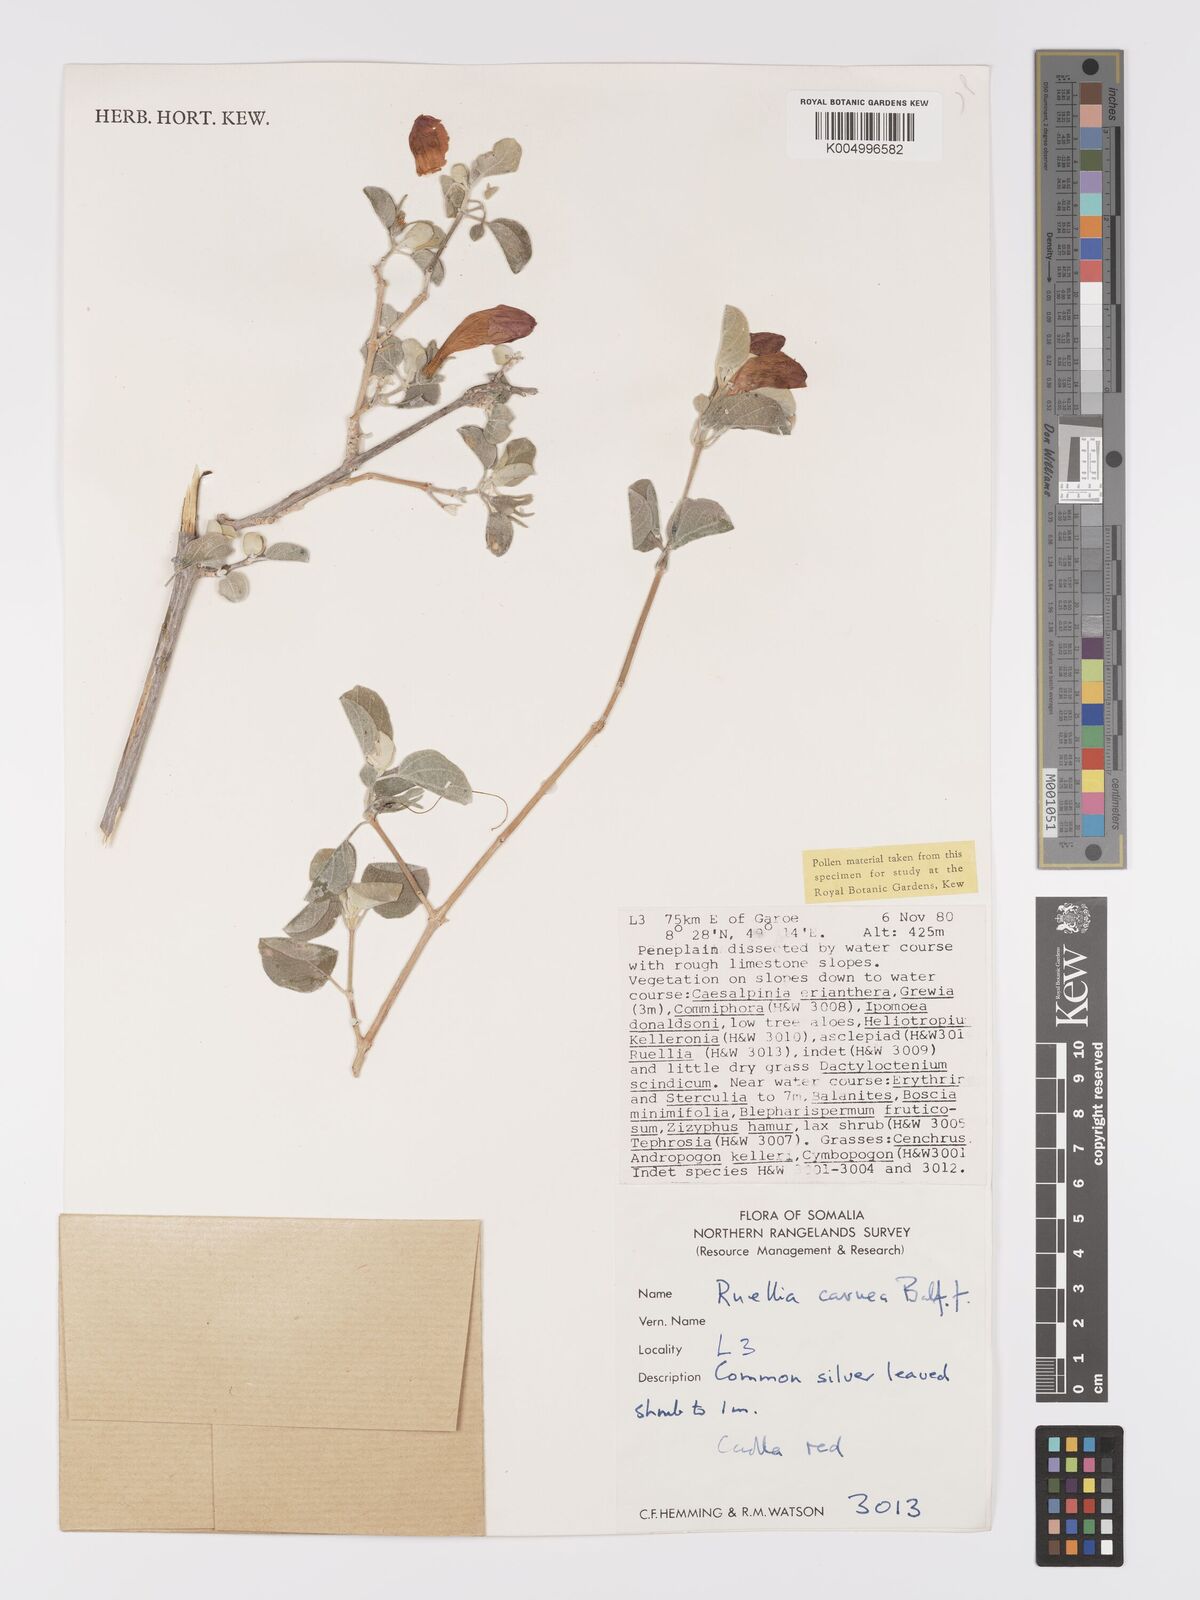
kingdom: Plantae
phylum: Tracheophyta
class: Magnoliopsida
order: Lamiales
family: Acanthaceae
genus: Ruellia
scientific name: Ruellia carnea
